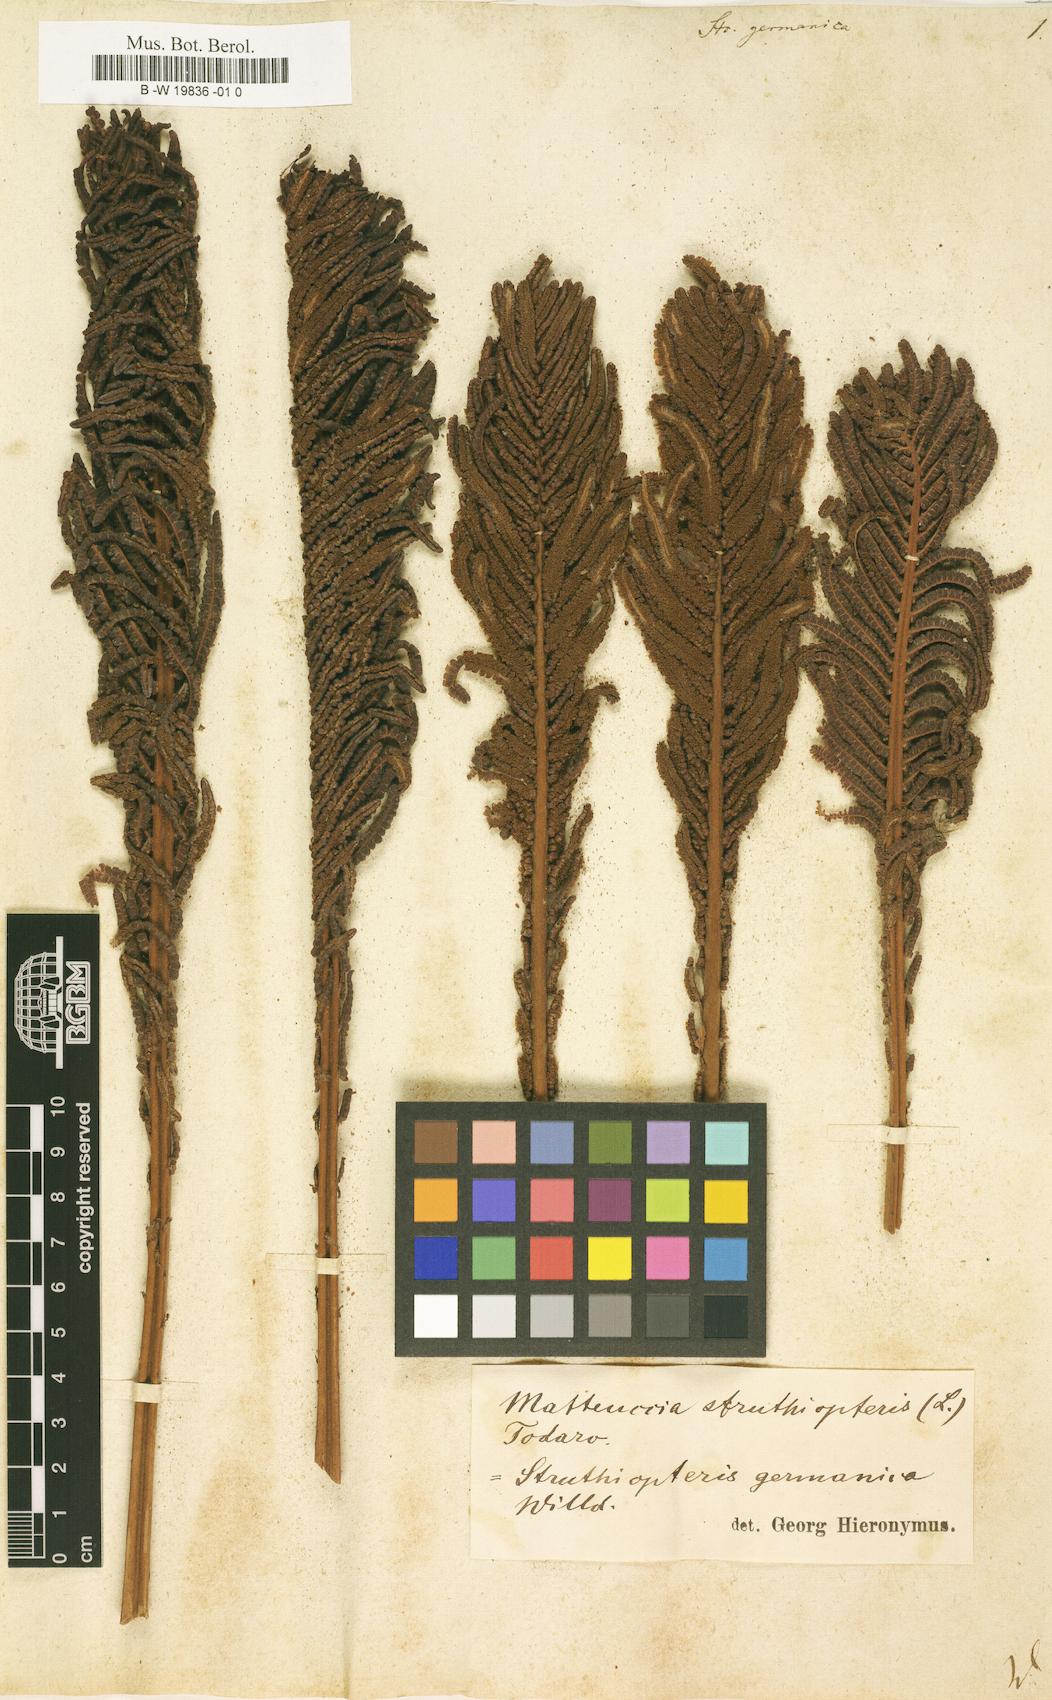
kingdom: Plantae
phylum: Tracheophyta
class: Polypodiopsida
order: Polypodiales
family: Onocleaceae
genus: Matteuccia
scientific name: Matteuccia struthiopteris
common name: Ostrich fern
